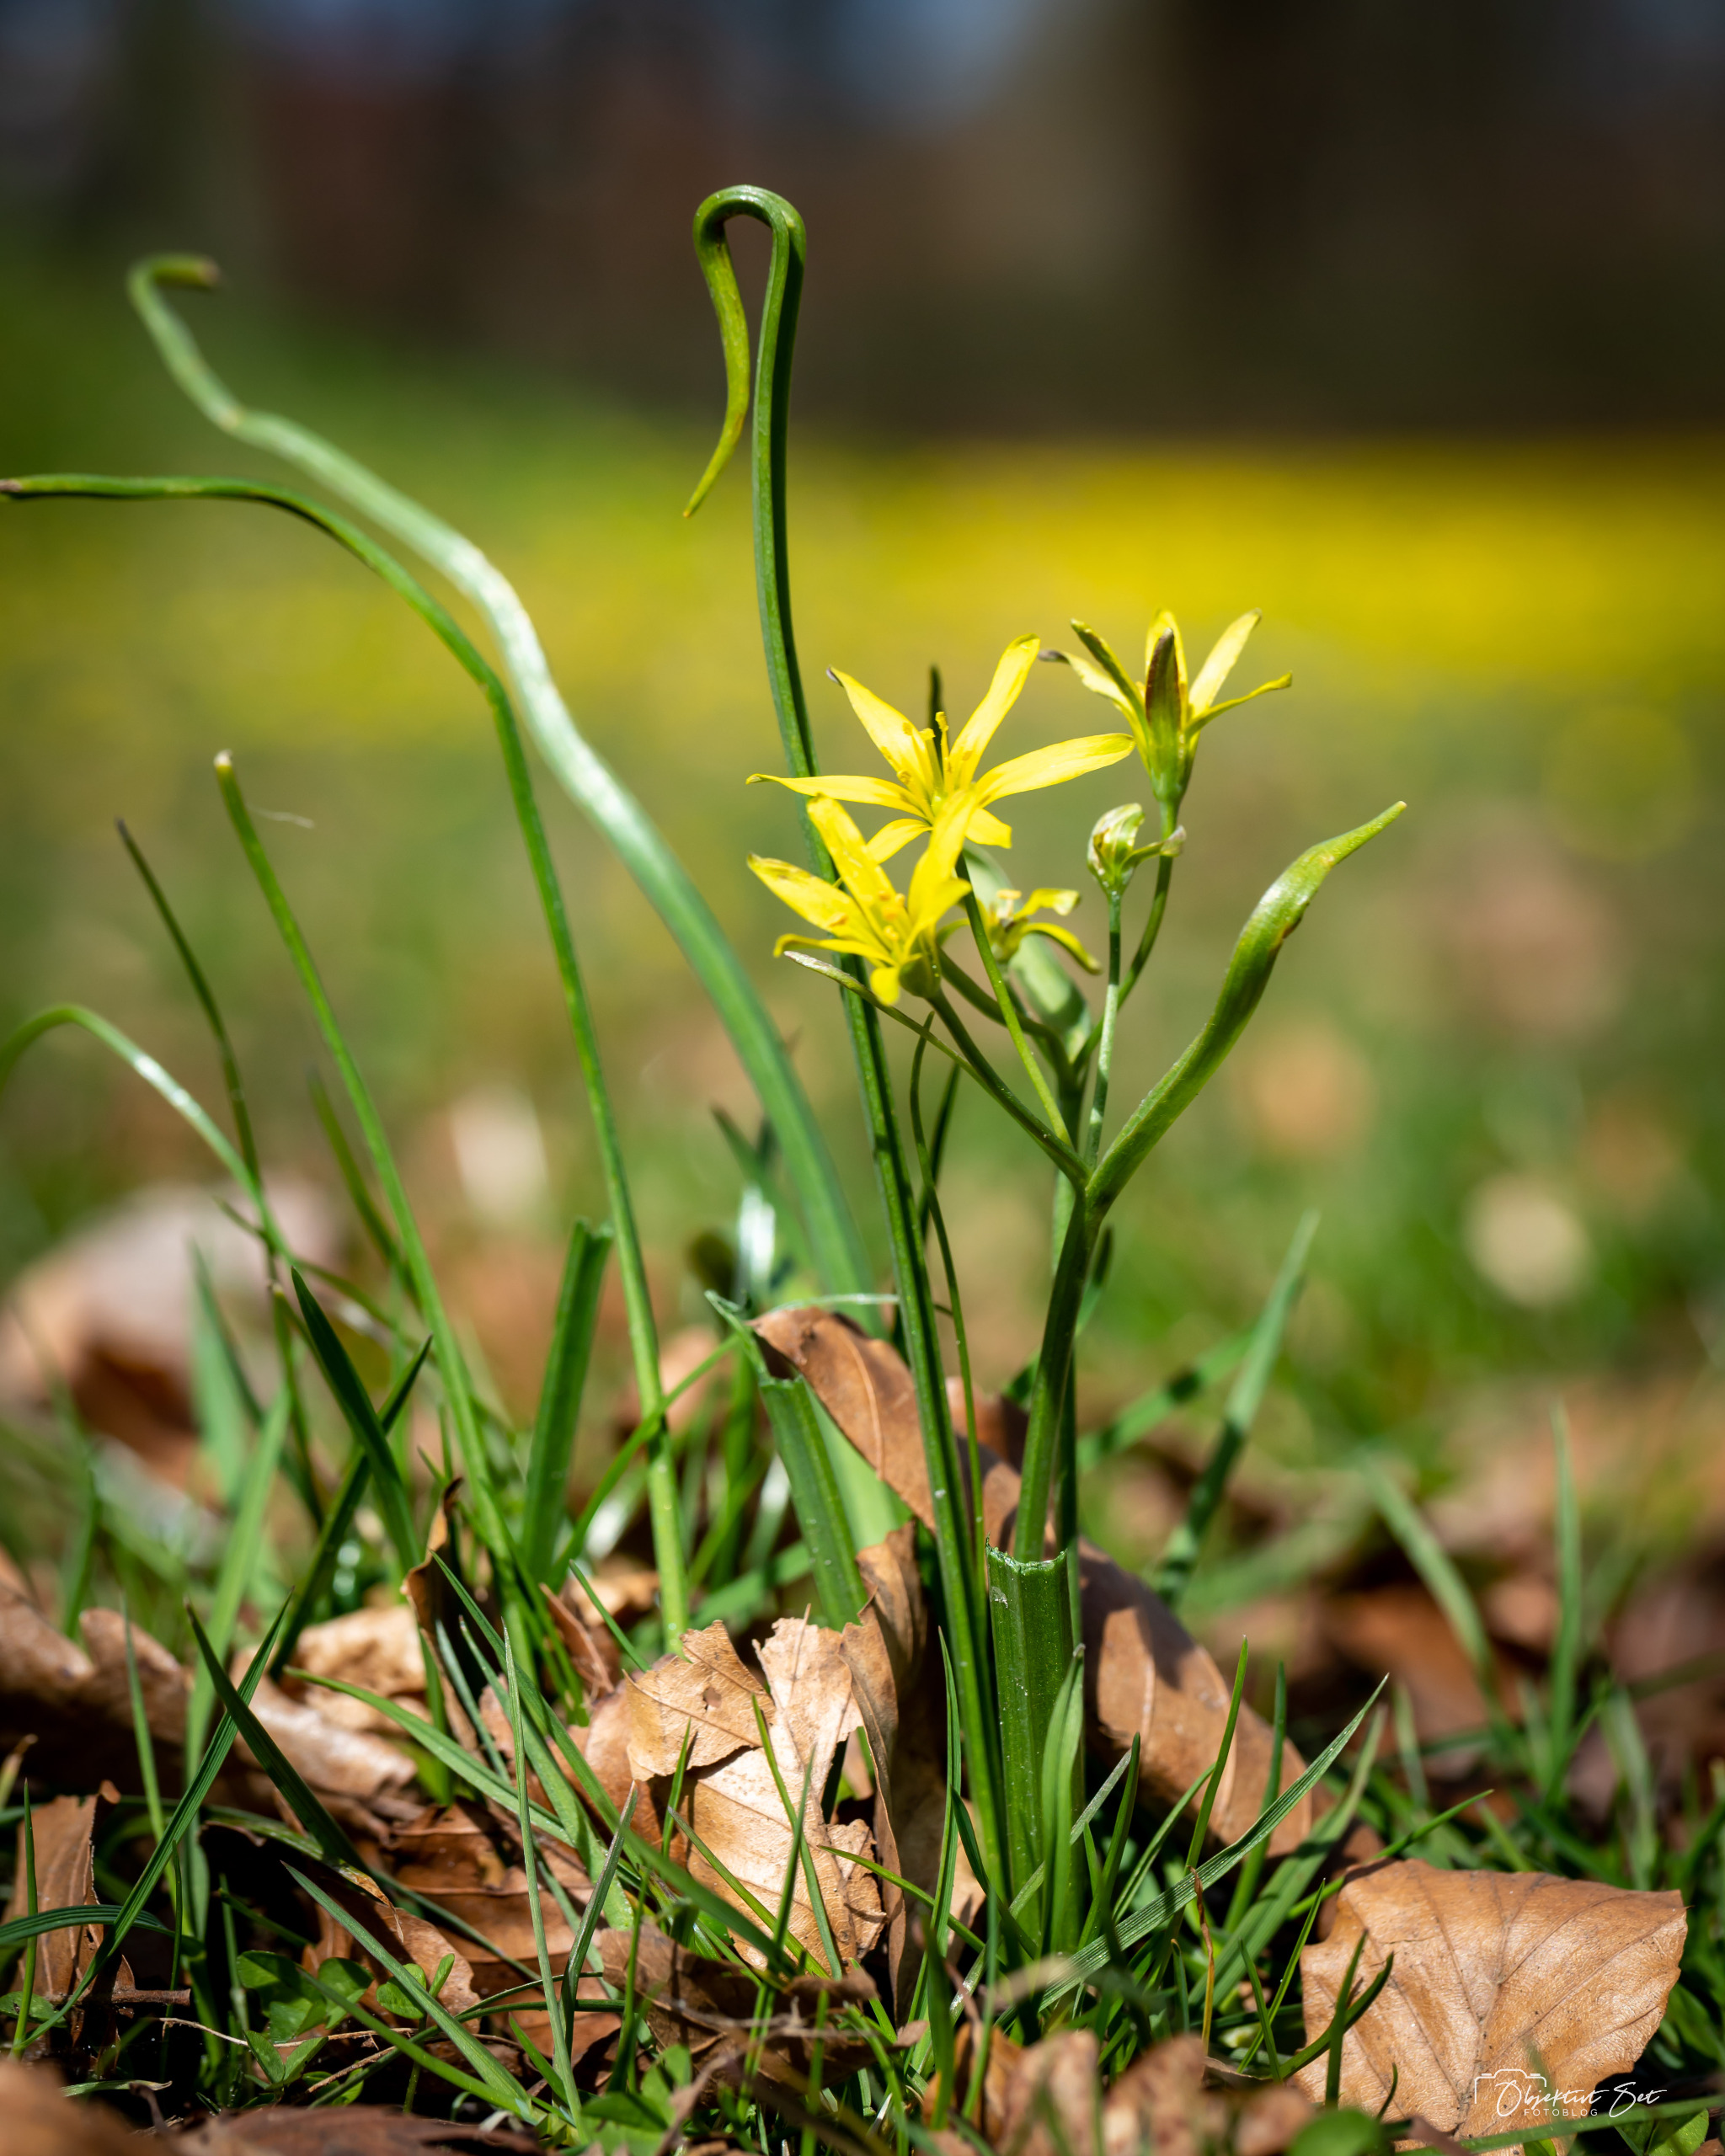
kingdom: Plantae
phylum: Tracheophyta
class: Liliopsida
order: Liliales
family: Liliaceae
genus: Gagea
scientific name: Gagea lutea
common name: Almindelig guldstjerne
